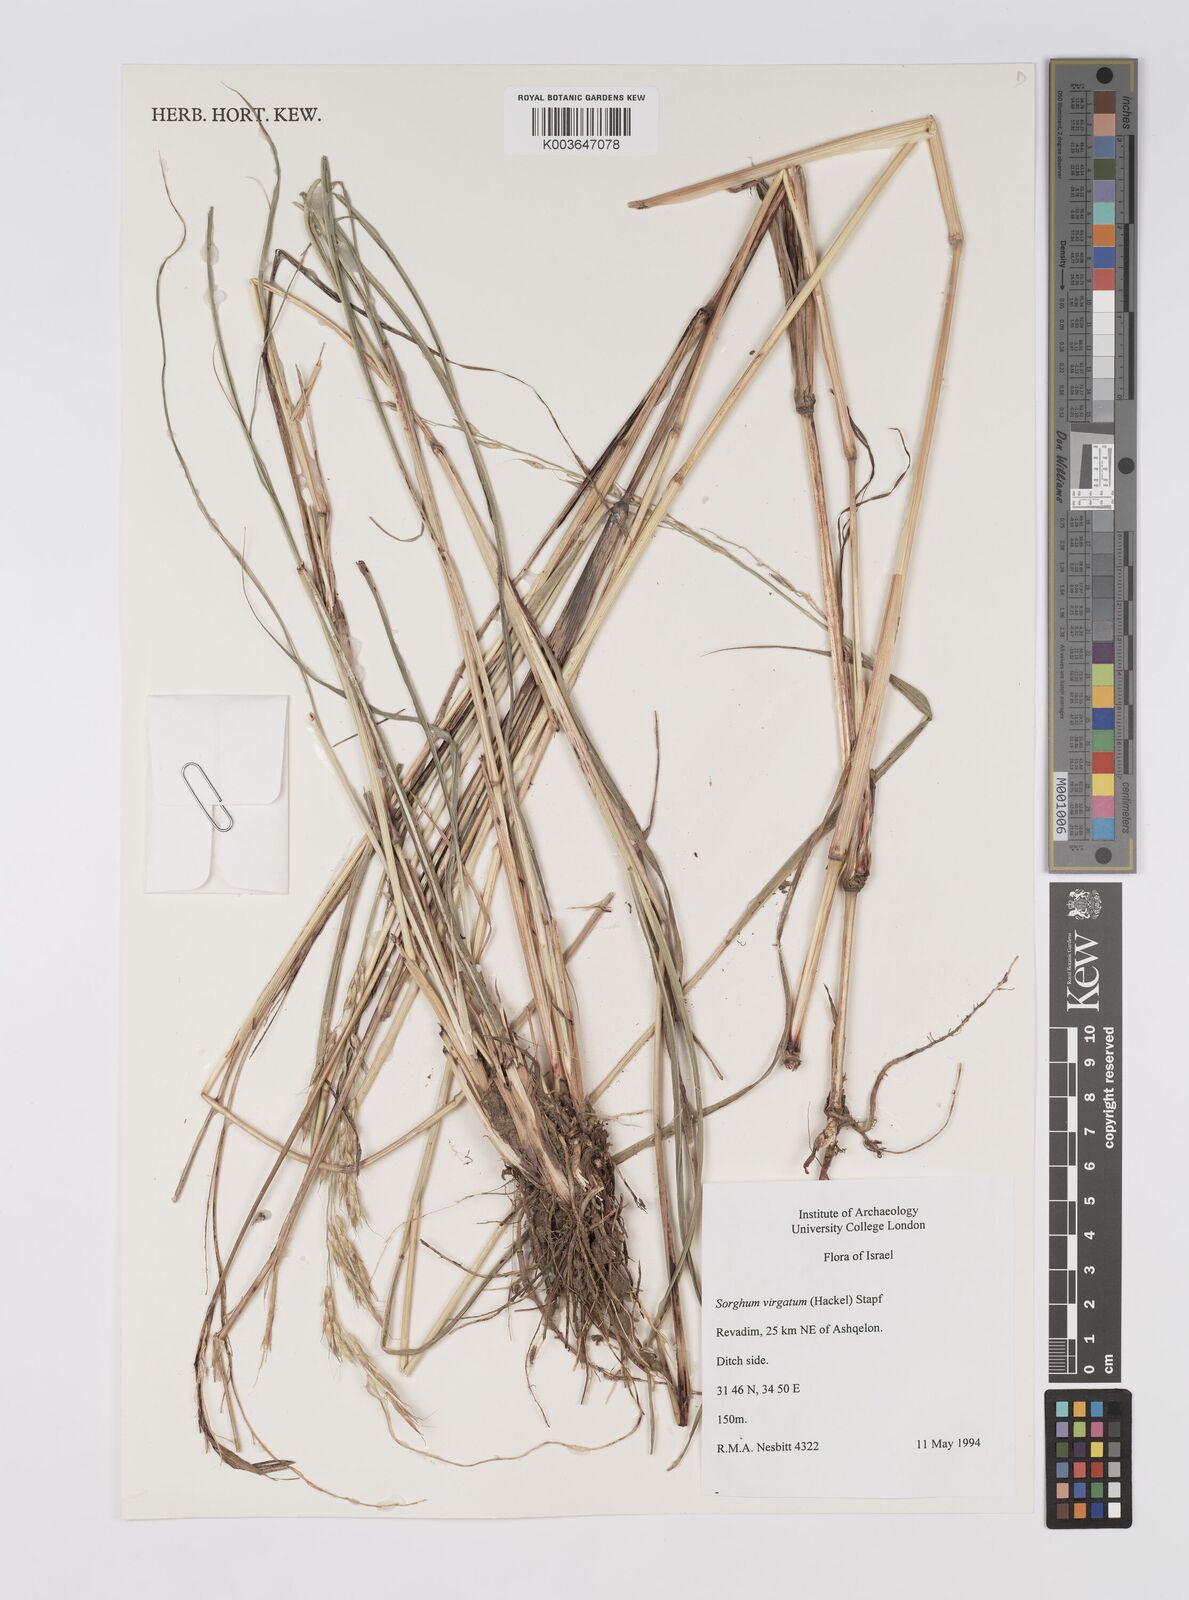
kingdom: Plantae
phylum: Tracheophyta
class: Liliopsida
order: Poales
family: Poaceae
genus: Sorghum
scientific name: Sorghum virgatum
